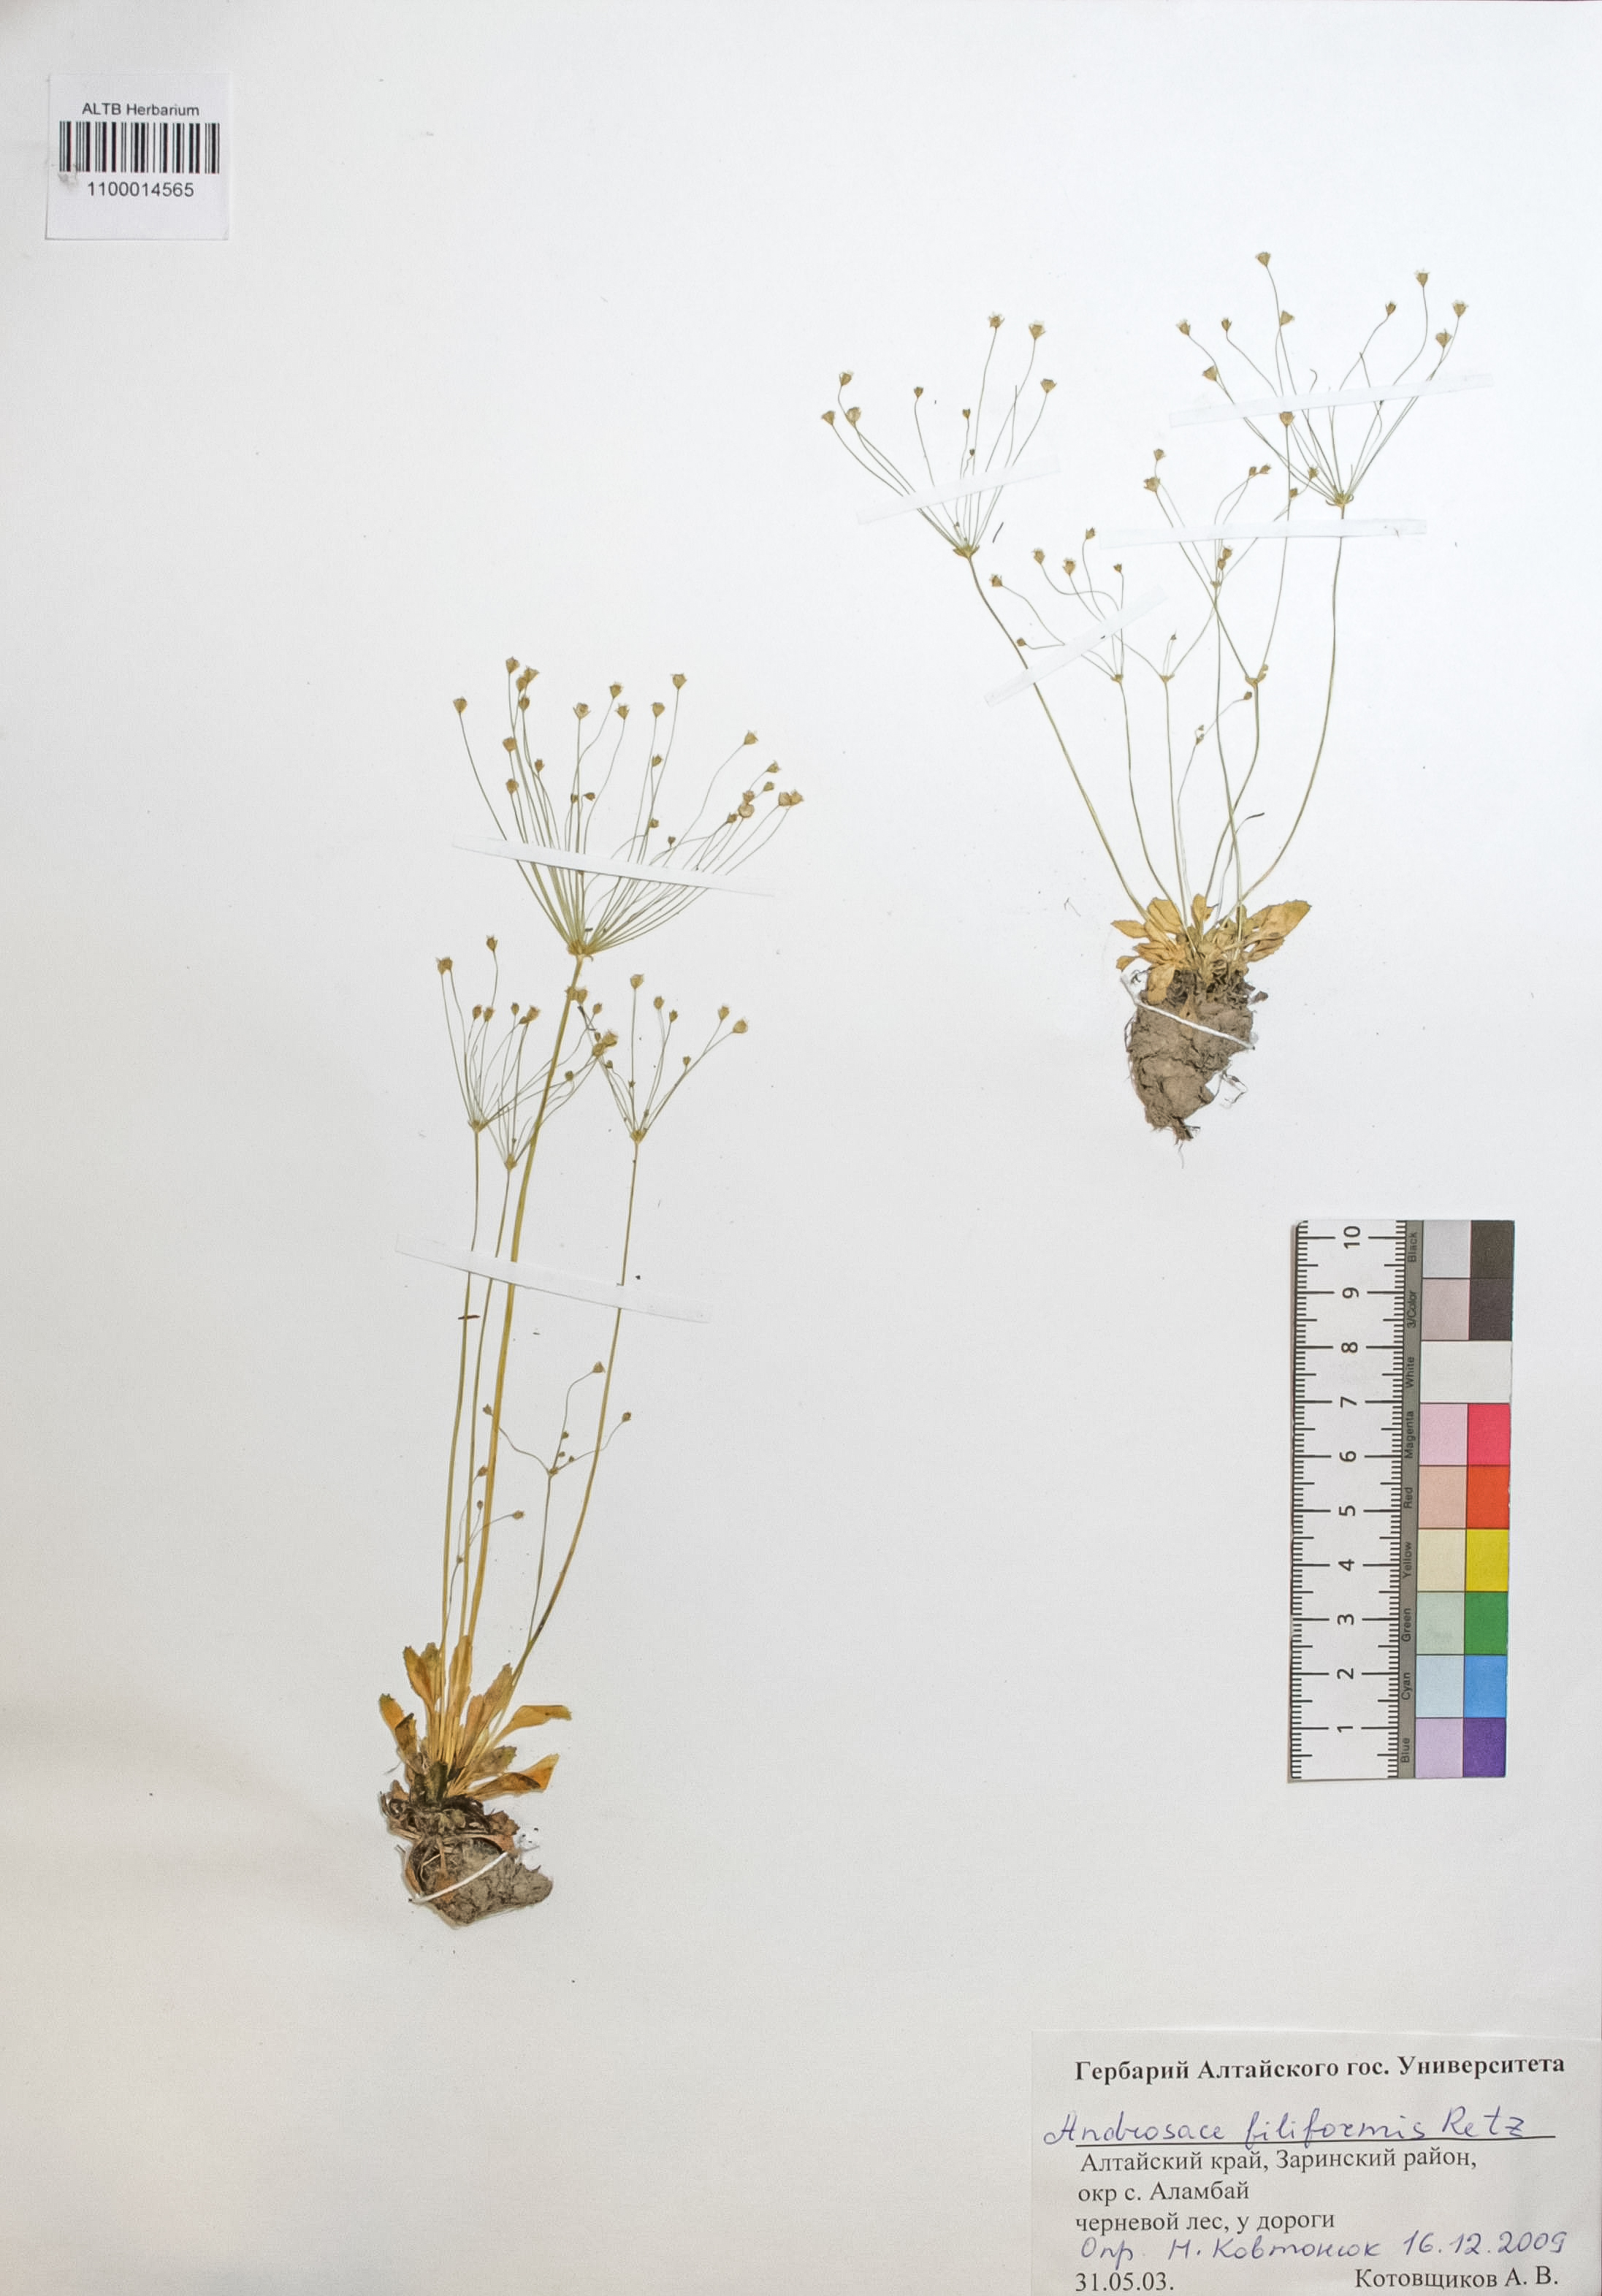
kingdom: Plantae
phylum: Tracheophyta
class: Magnoliopsida
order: Ericales
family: Primulaceae
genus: Androsace
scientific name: Androsace filiformis
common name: Filiform rock jasmine
